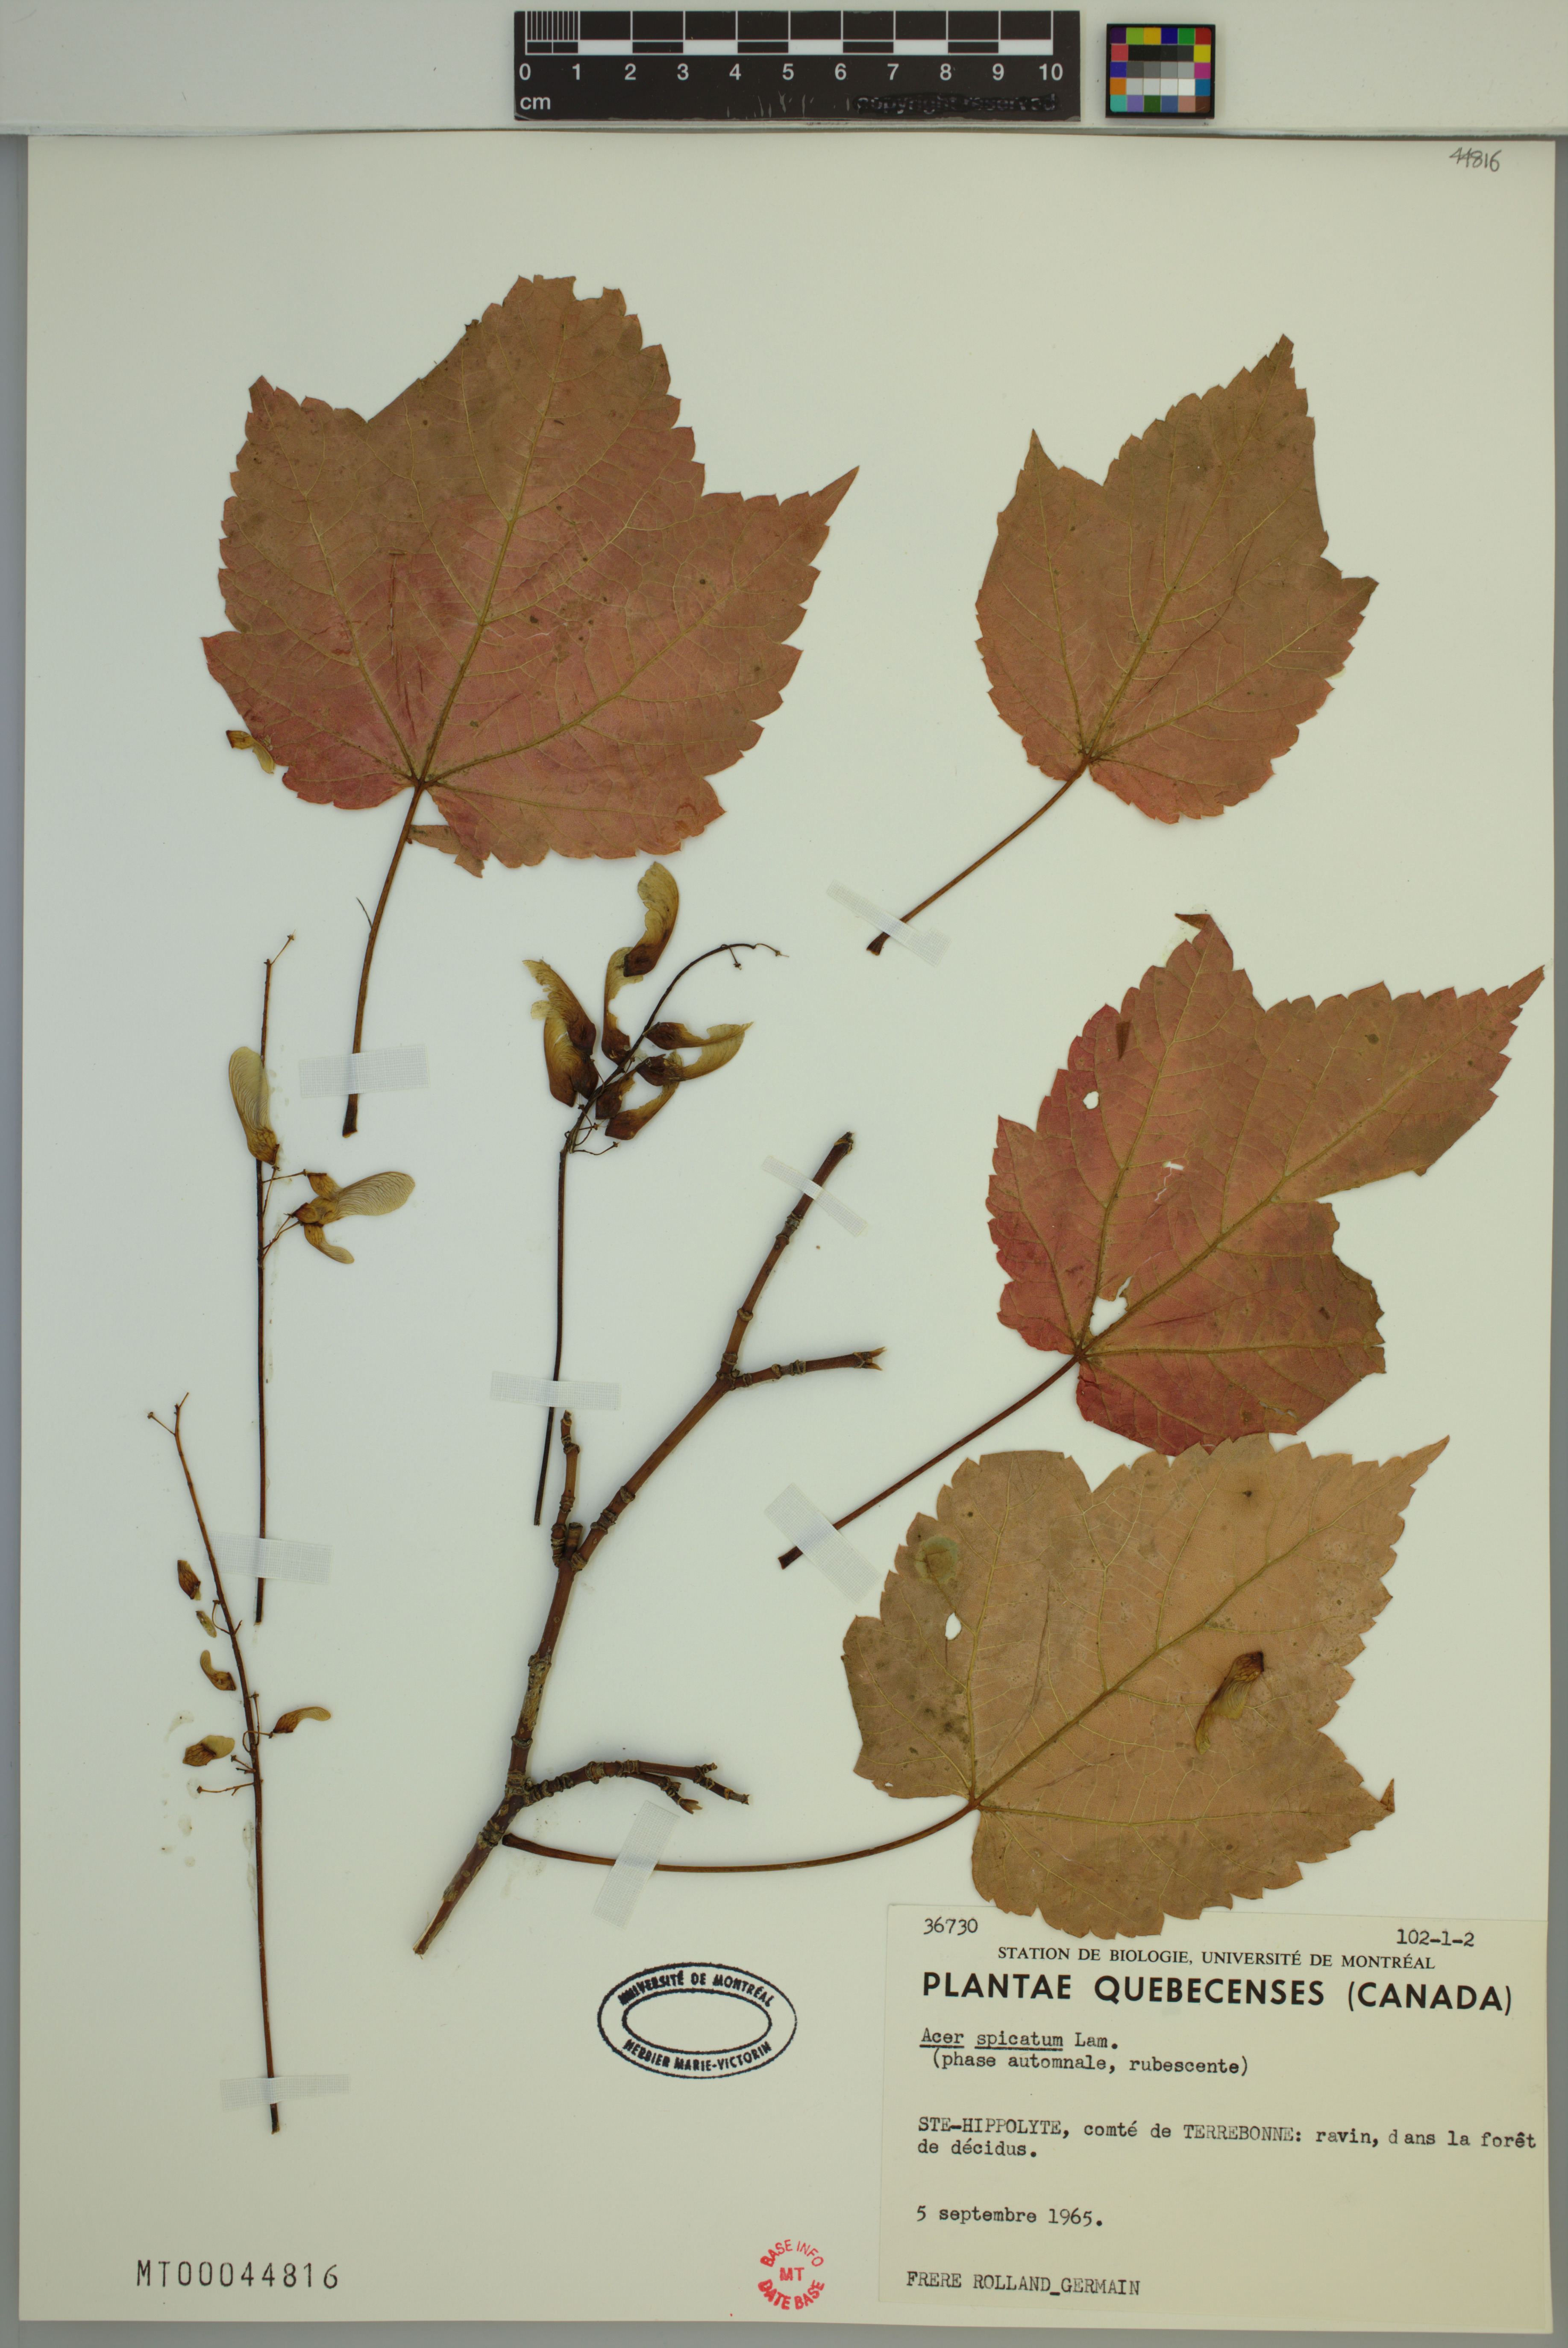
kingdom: Plantae
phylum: Tracheophyta
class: Magnoliopsida
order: Sapindales
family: Sapindaceae
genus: Acer
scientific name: Acer spicatum
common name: Mountain maple
